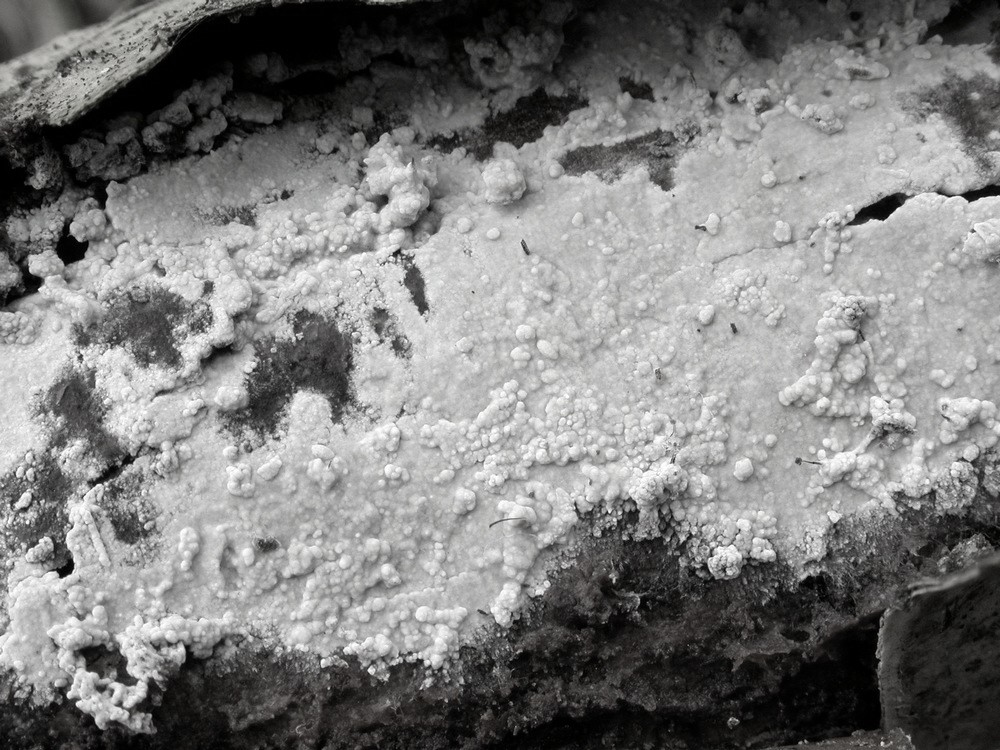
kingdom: Fungi
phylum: Basidiomycota
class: Agaricomycetes
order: Polyporales
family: Hyphodermataceae
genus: Hyphoderma
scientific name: Hyphoderma medioburiense
